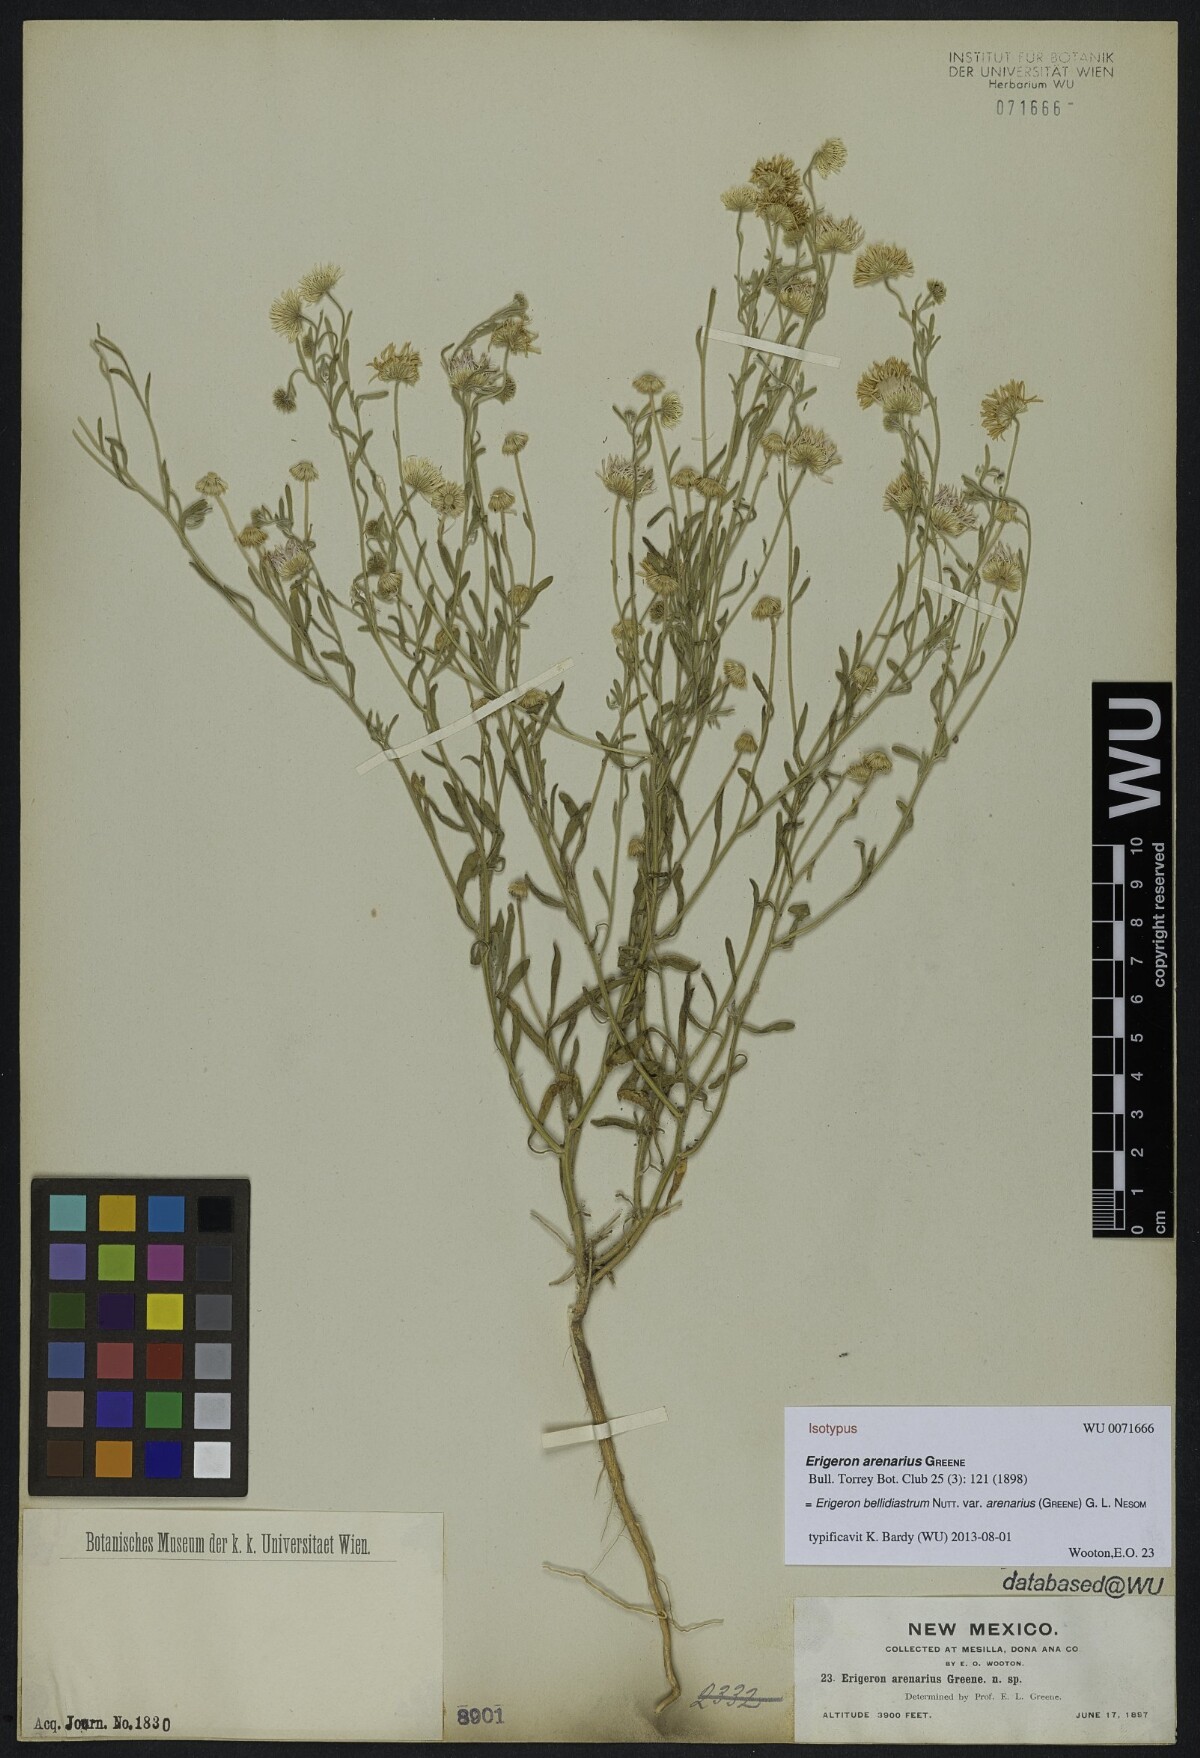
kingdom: Plantae
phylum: Tracheophyta
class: Magnoliopsida
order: Asterales
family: Asteraceae
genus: Erigeron
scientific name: Erigeron bellidiastrum
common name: Sand fleabane
